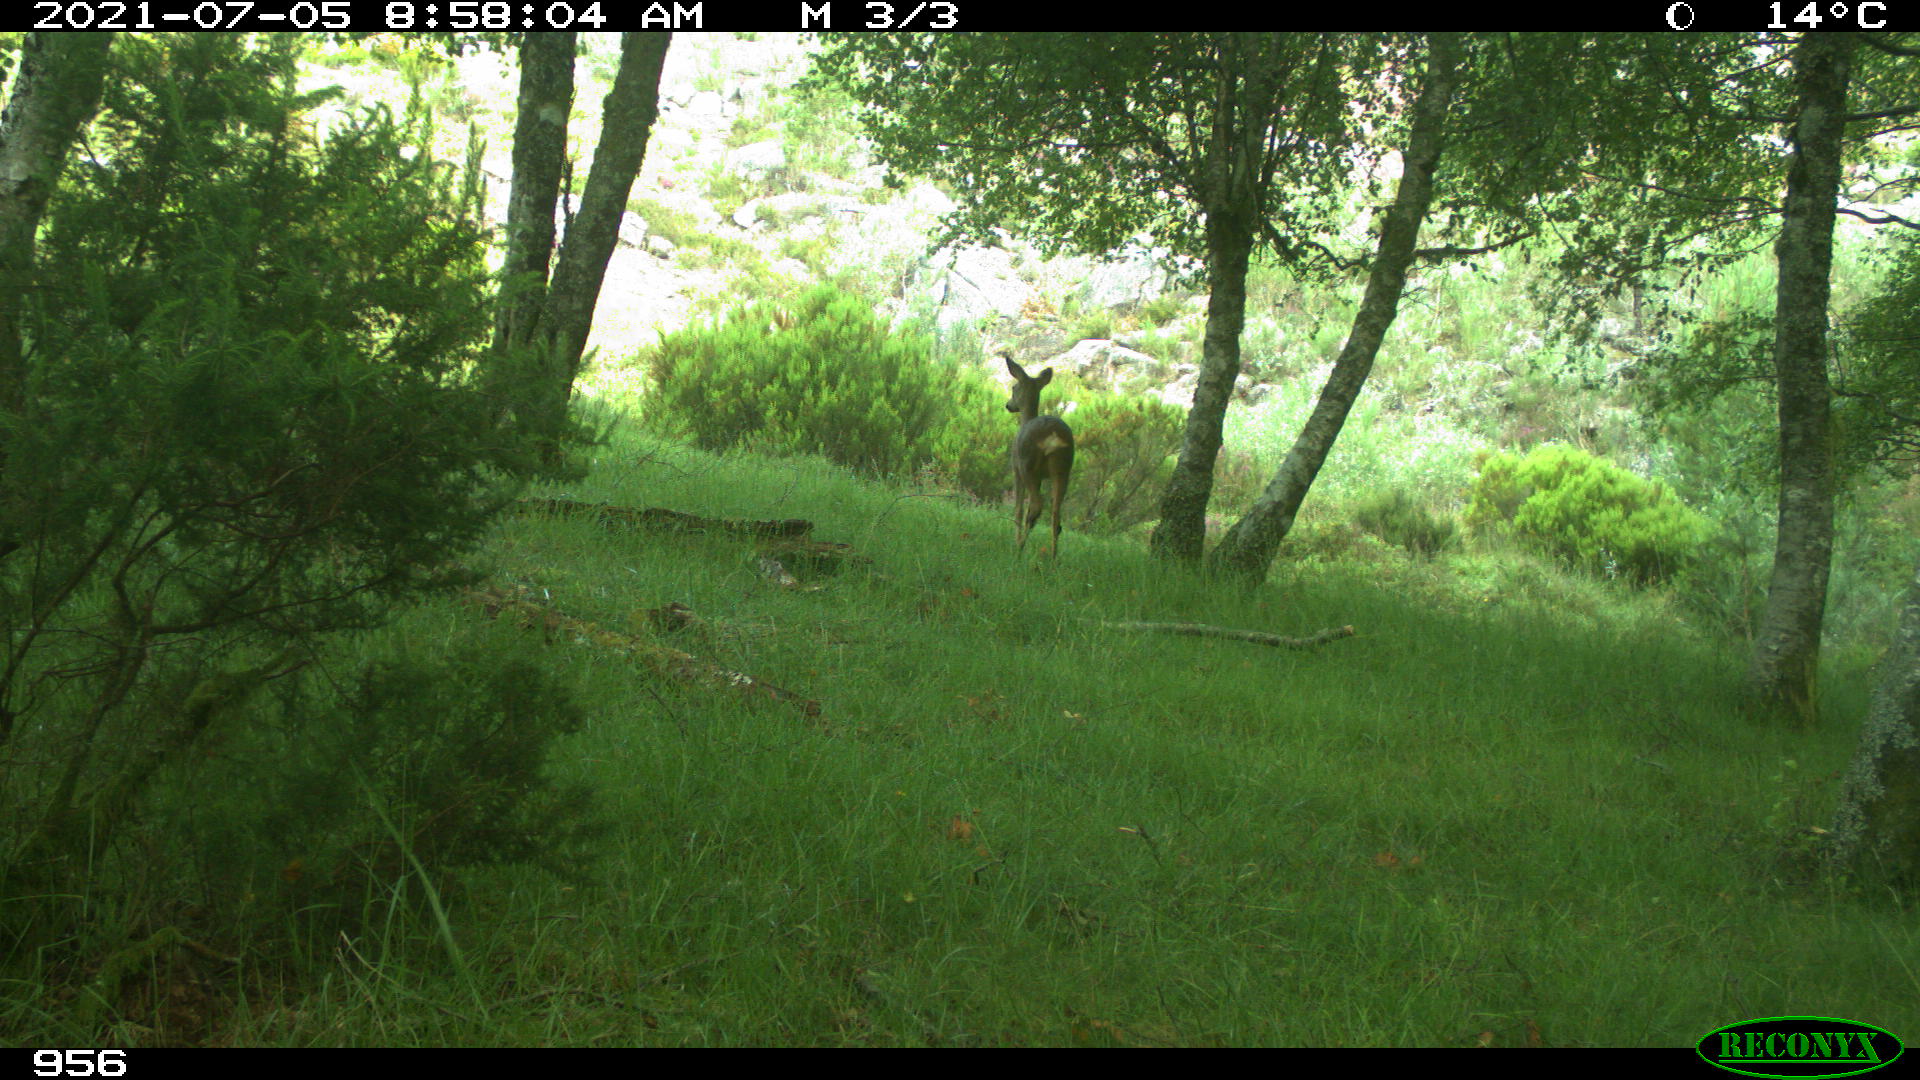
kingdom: Animalia
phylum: Chordata
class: Mammalia
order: Artiodactyla
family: Cervidae
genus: Capreolus
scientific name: Capreolus capreolus
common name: Western roe deer
